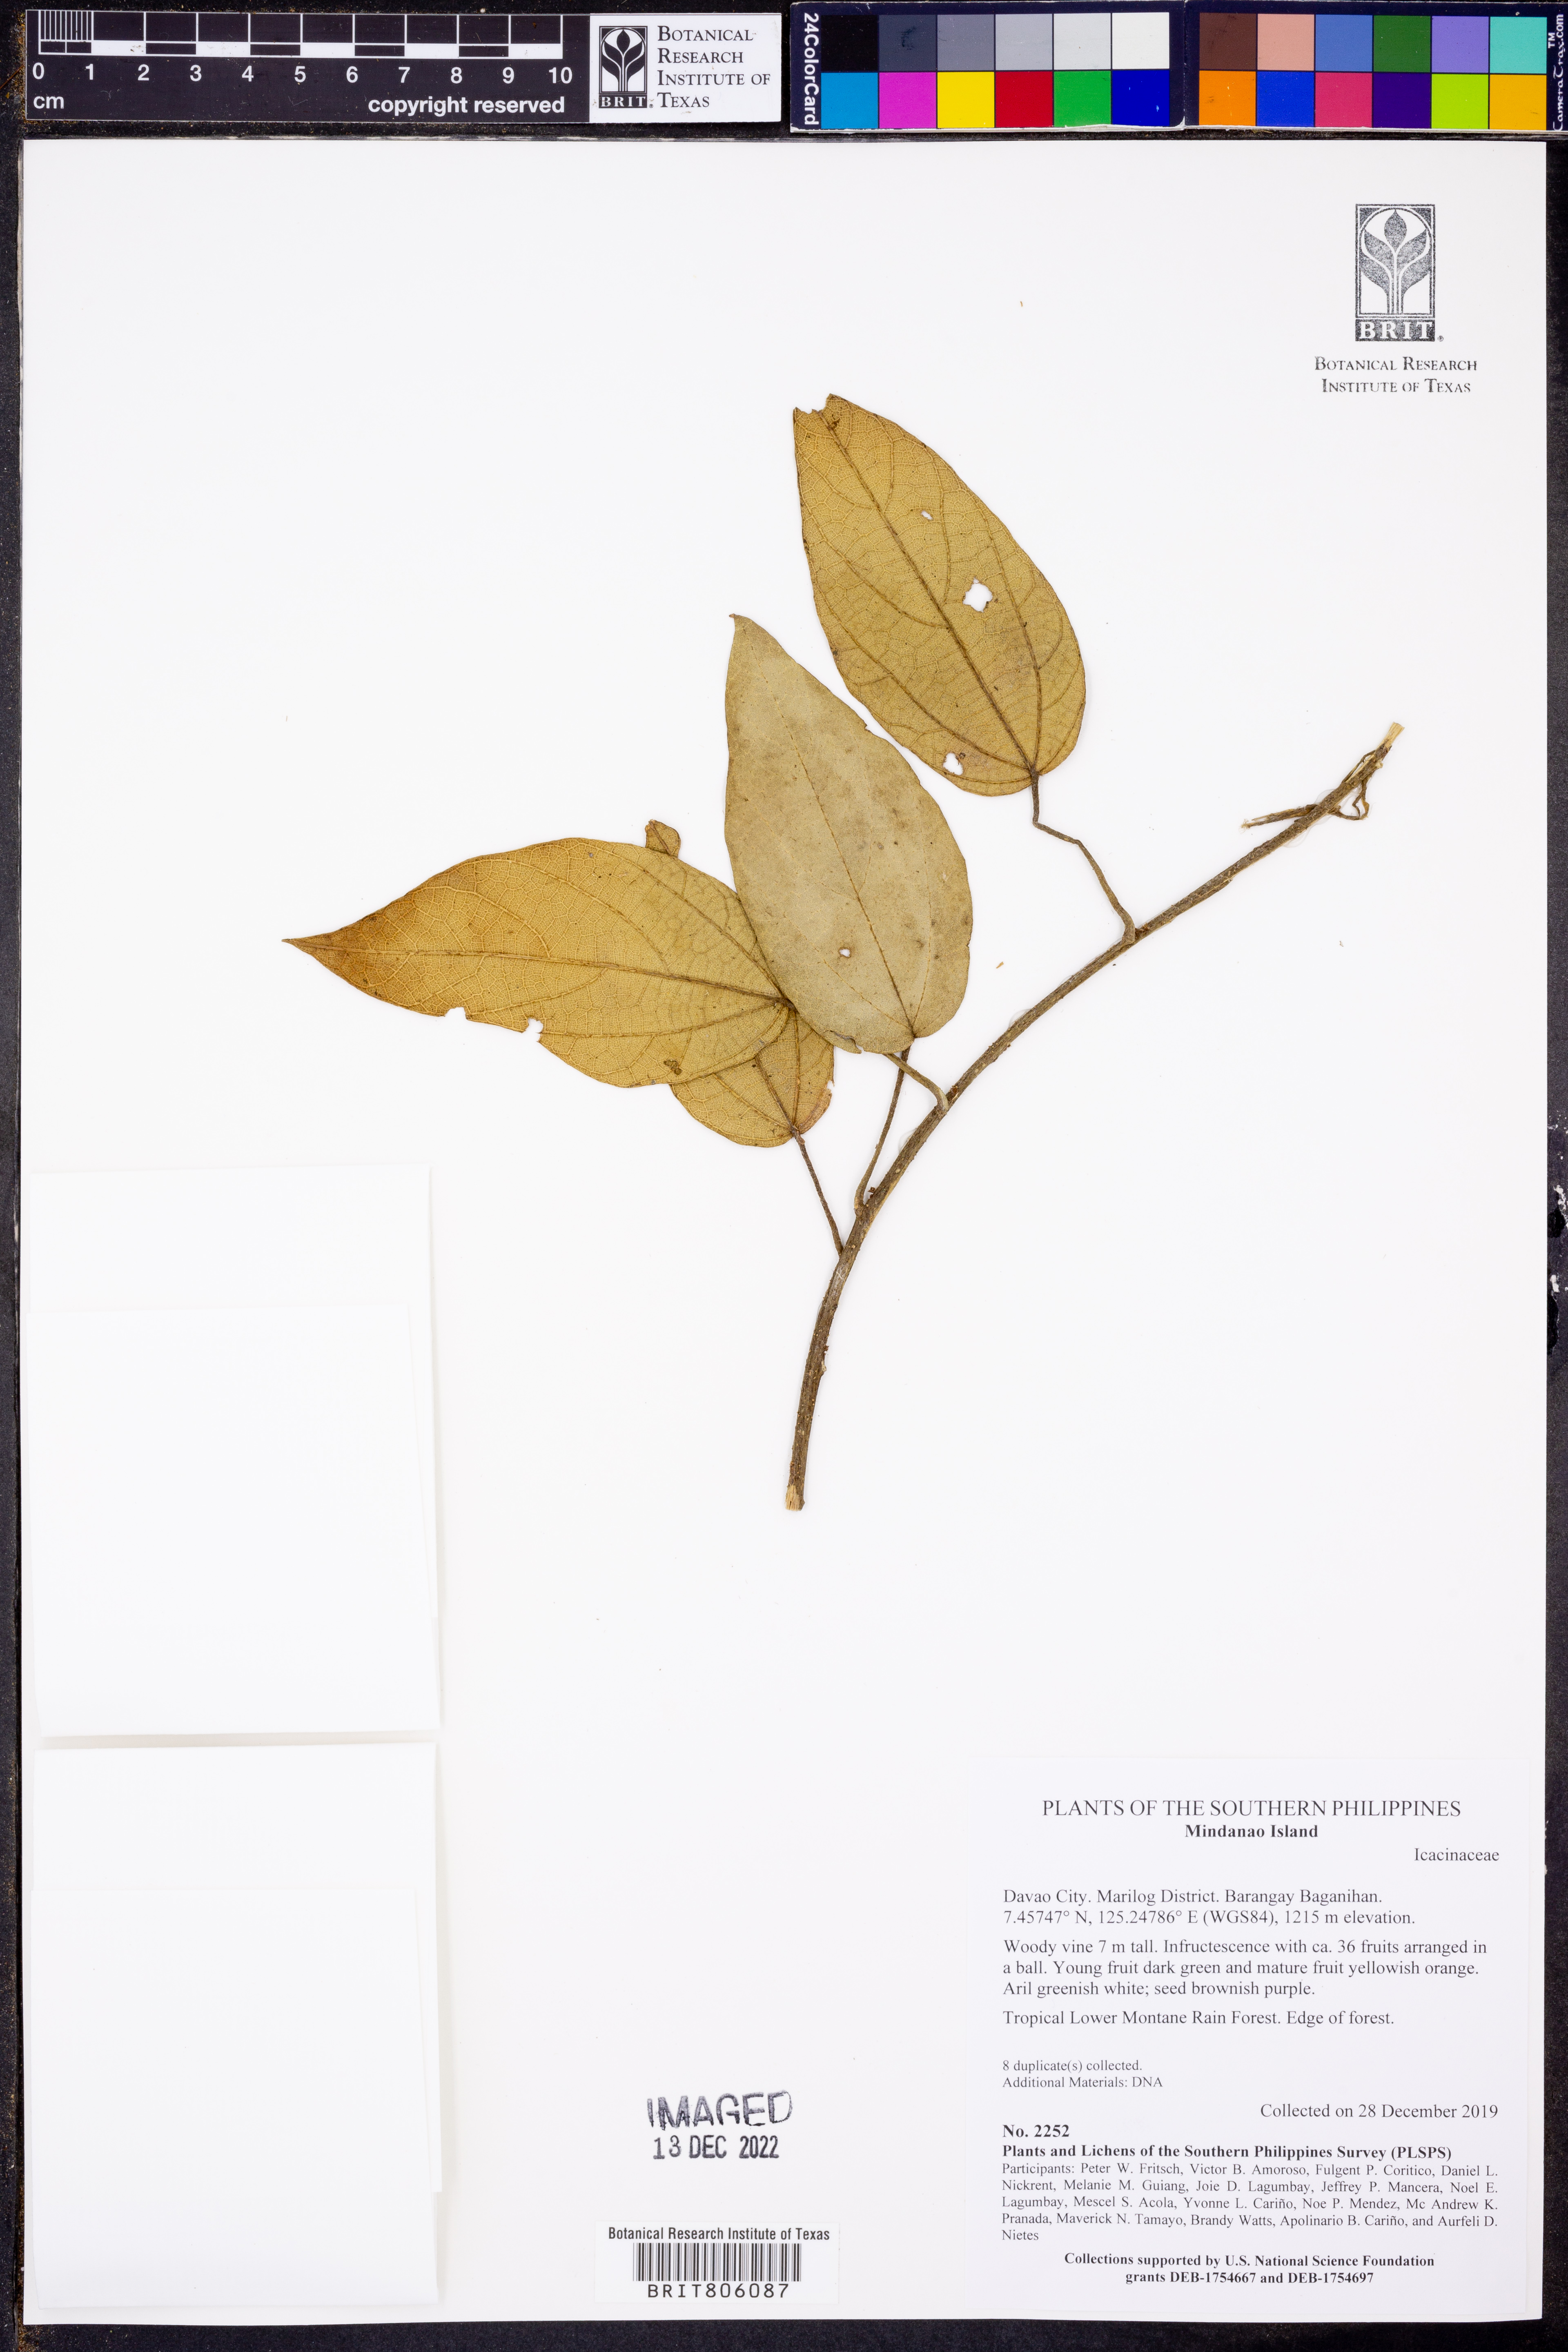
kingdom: Plantae
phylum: Tracheophyta
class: Magnoliopsida
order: Icacinales
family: Icacinaceae
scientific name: Icacinaceae
